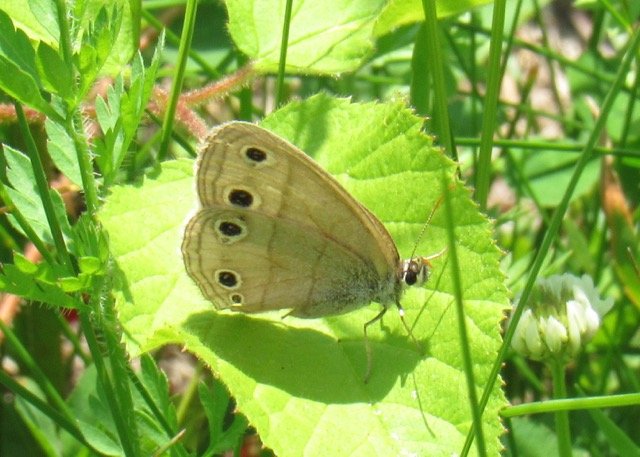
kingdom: Animalia
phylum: Arthropoda
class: Insecta
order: Lepidoptera
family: Nymphalidae
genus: Euptychia
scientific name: Euptychia cymela
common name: Little Wood Satyr
